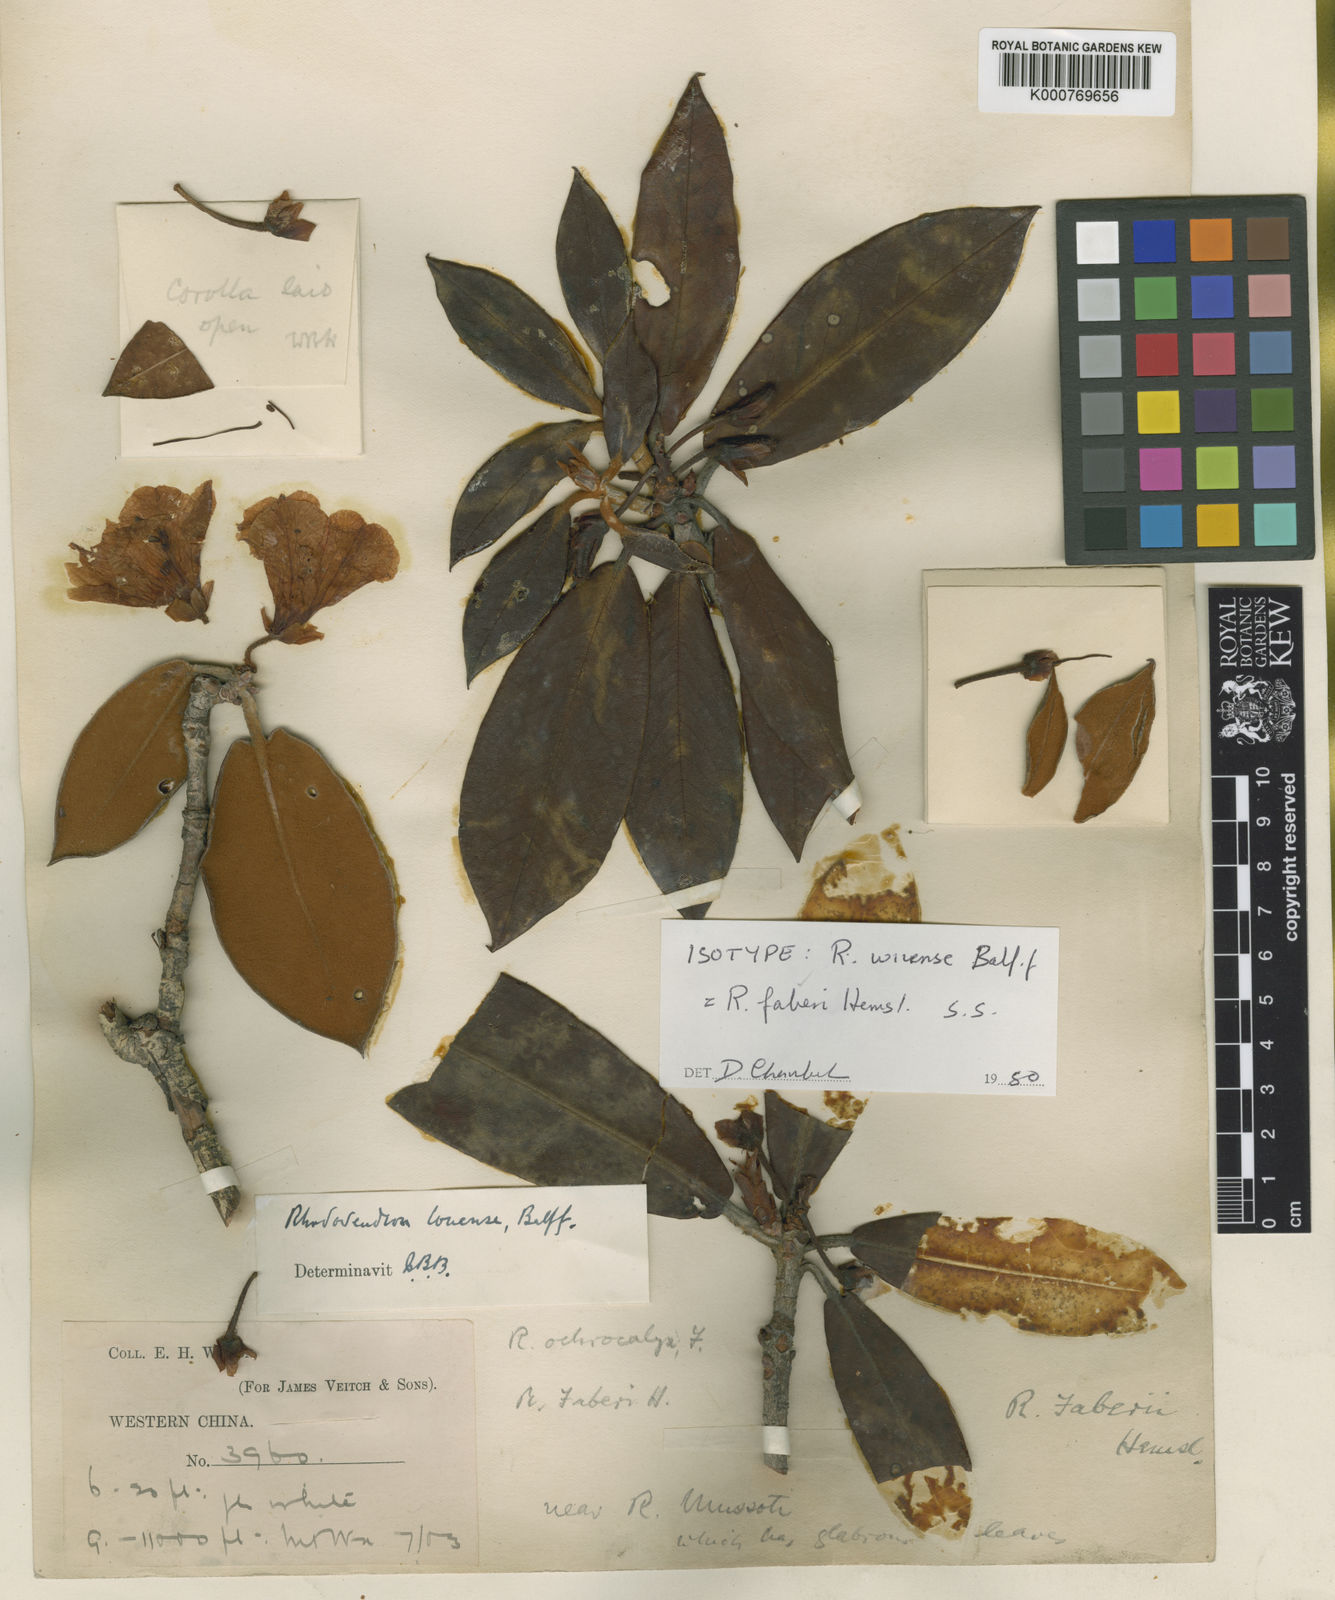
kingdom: Plantae
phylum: Tracheophyta
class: Magnoliopsida
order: Ericales
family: Ericaceae
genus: Rhododendron
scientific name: Rhododendron faberi
